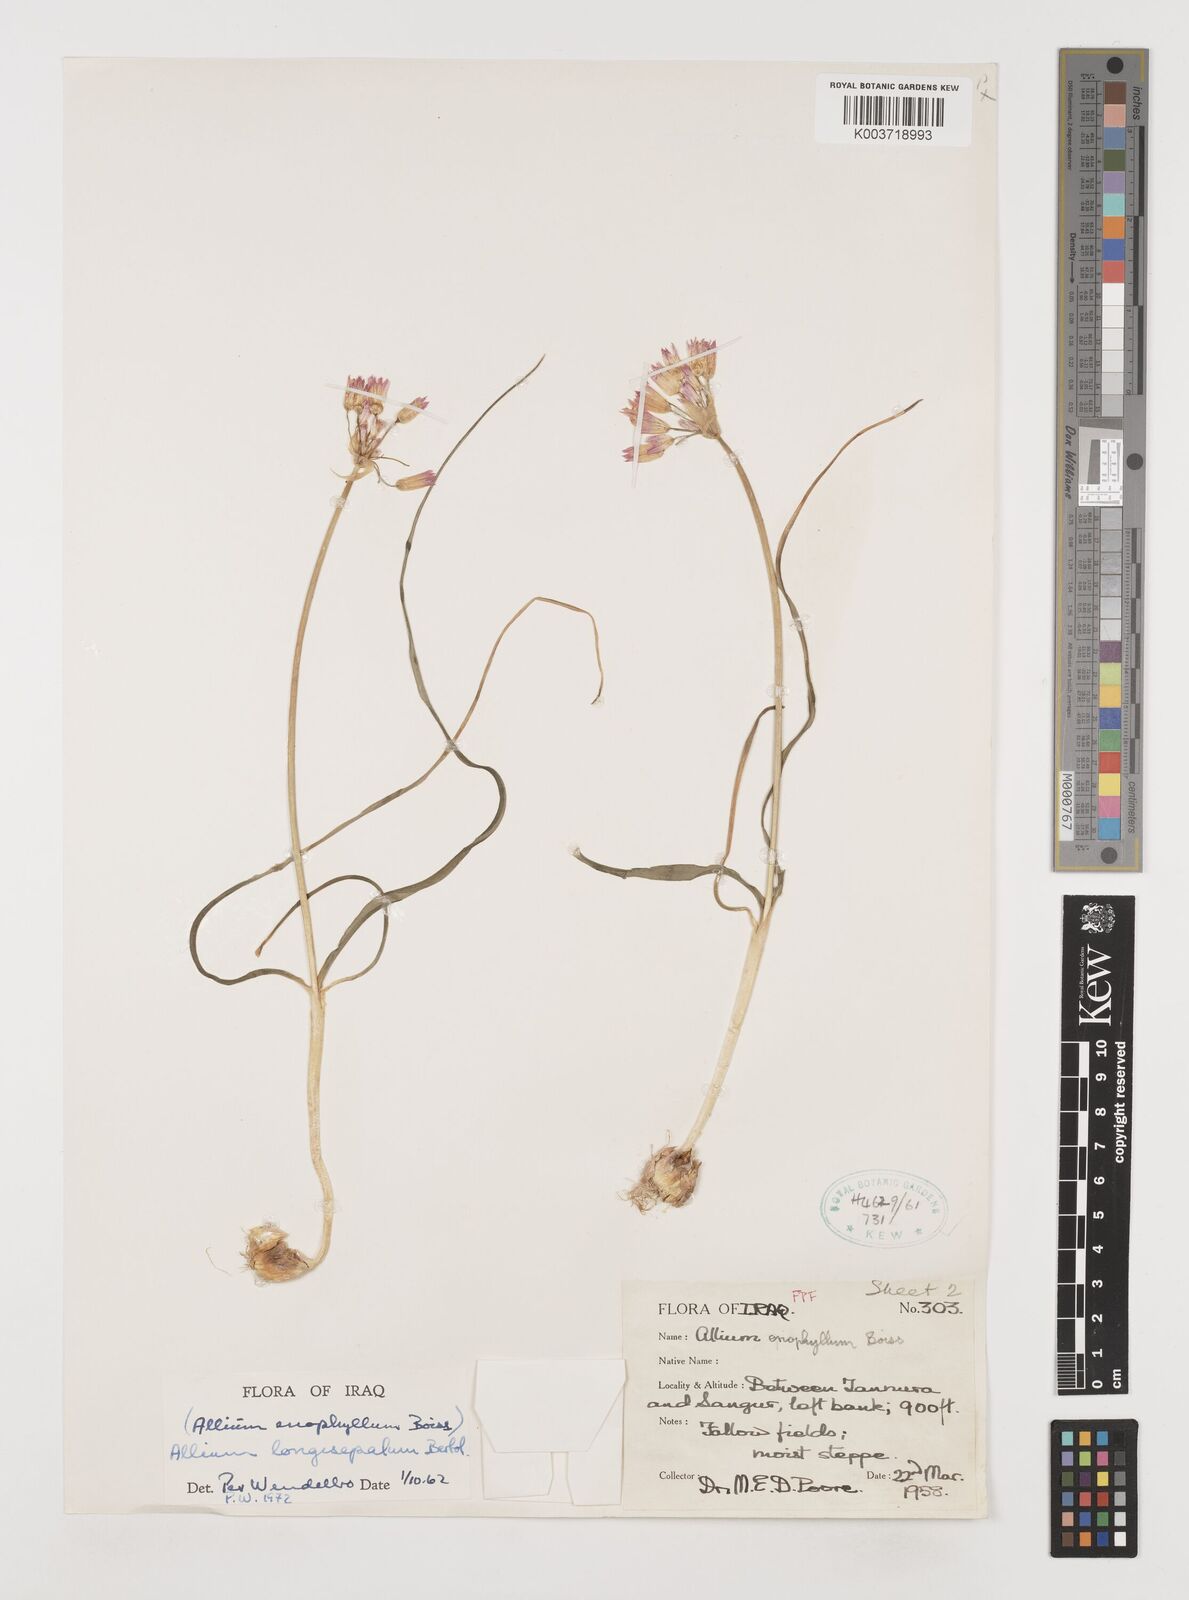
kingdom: Plantae
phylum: Tracheophyta
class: Liliopsida
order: Asparagales
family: Amaryllidaceae
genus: Allium
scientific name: Allium longisepalum
